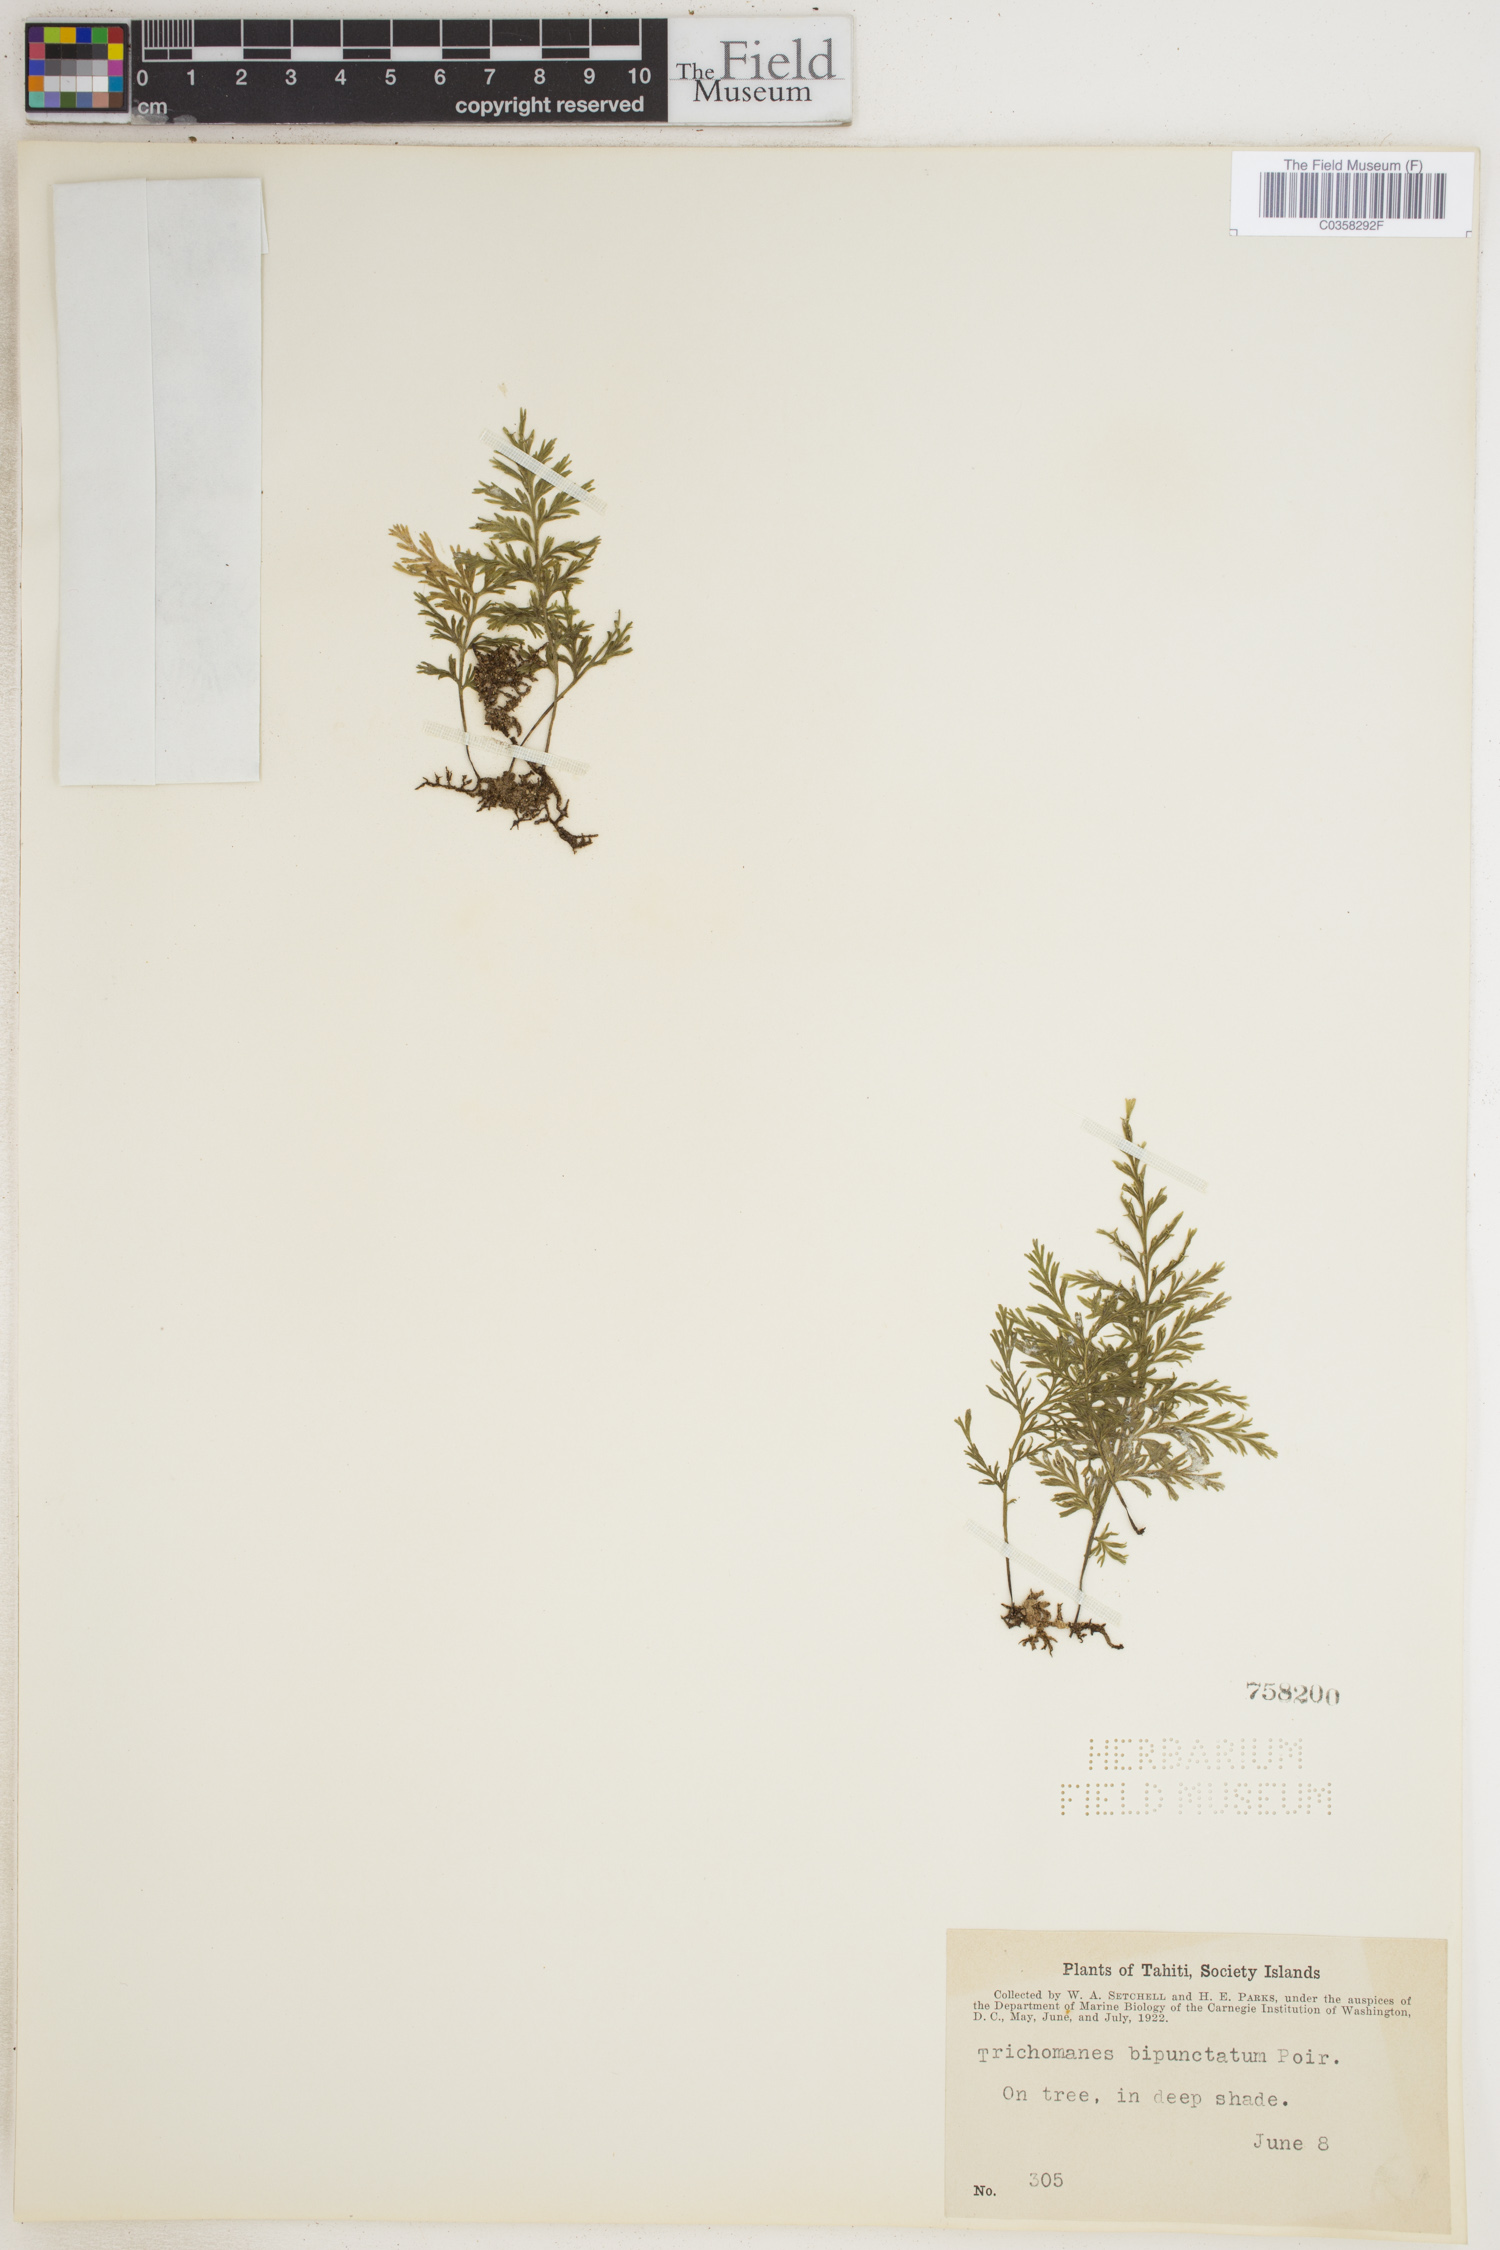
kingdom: Plantae
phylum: Tracheophyta
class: Polypodiopsida
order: Hymenophyllales
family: Hymenophyllaceae
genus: Crepidomanes
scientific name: Crepidomanes bipunctatum
